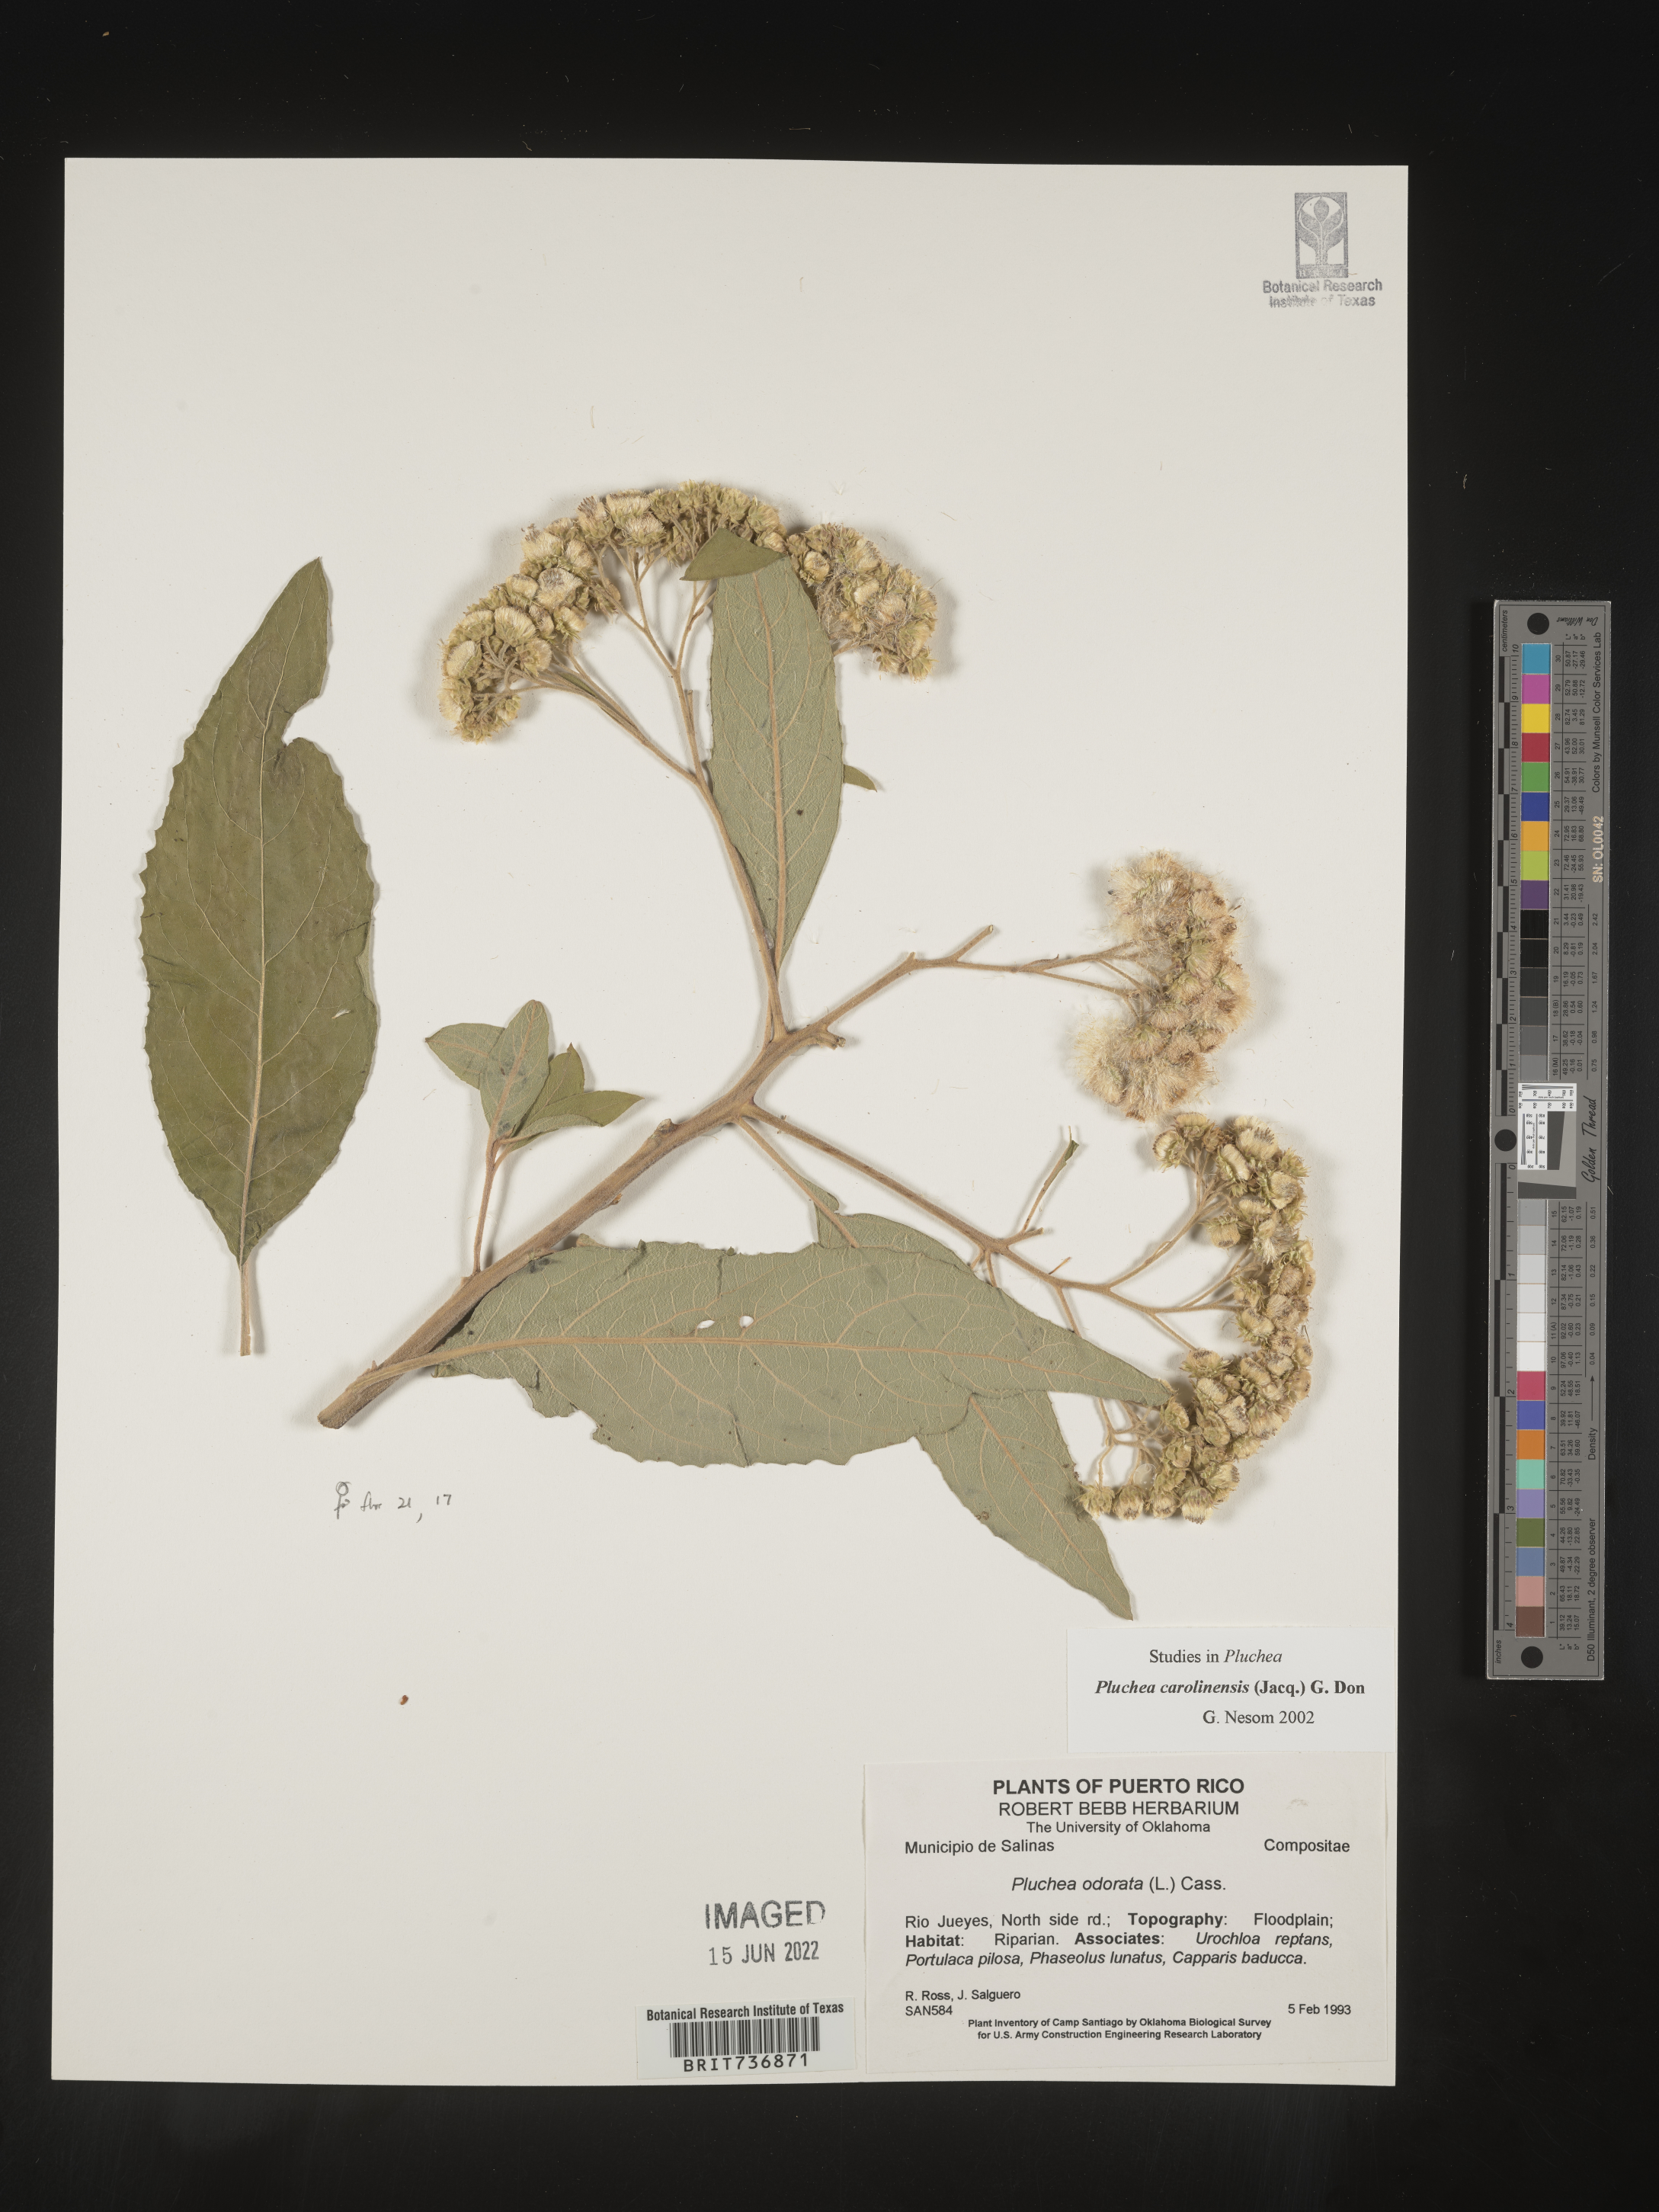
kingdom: Plantae
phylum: Tracheophyta
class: Magnoliopsida
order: Asterales
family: Asteraceae
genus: Pluchea
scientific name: Pluchea
